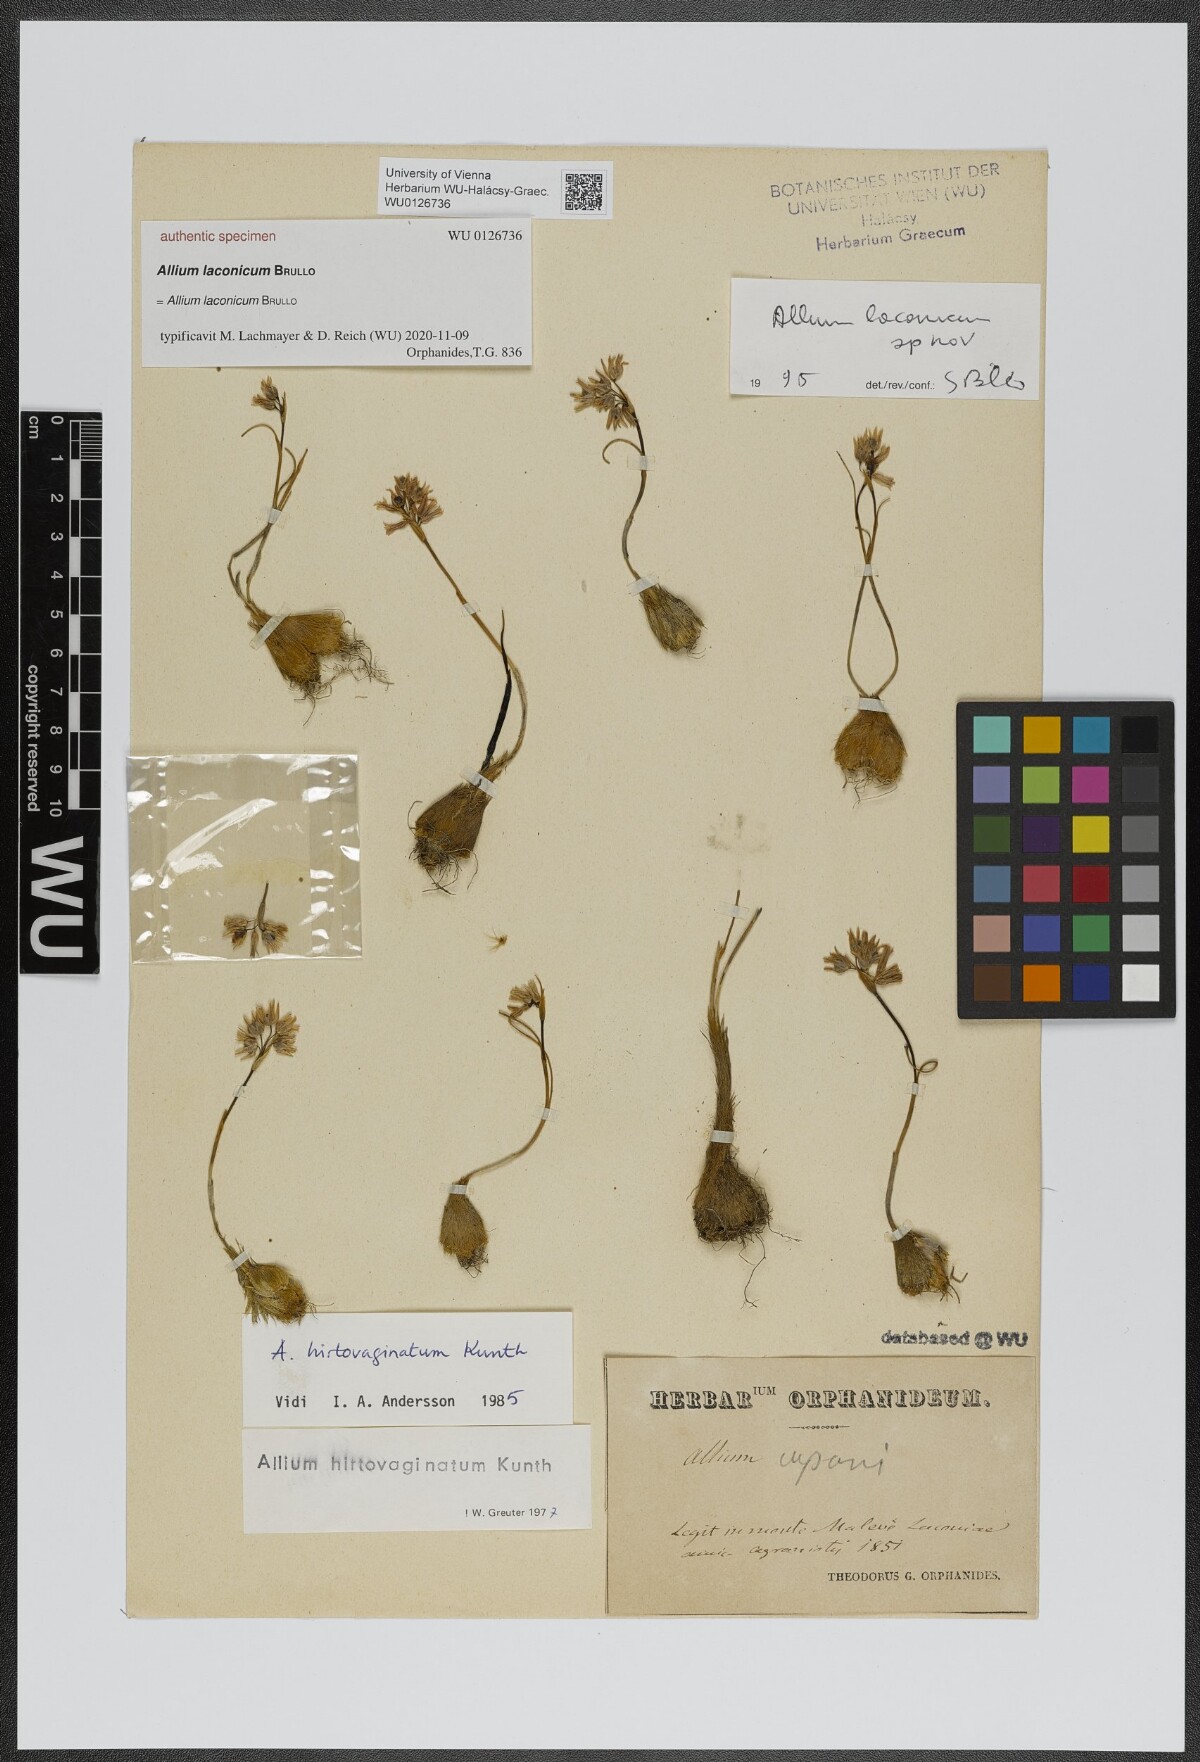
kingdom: Plantae
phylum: Tracheophyta
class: Liliopsida
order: Asparagales
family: Amaryllidaceae
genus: Allium
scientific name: Allium
